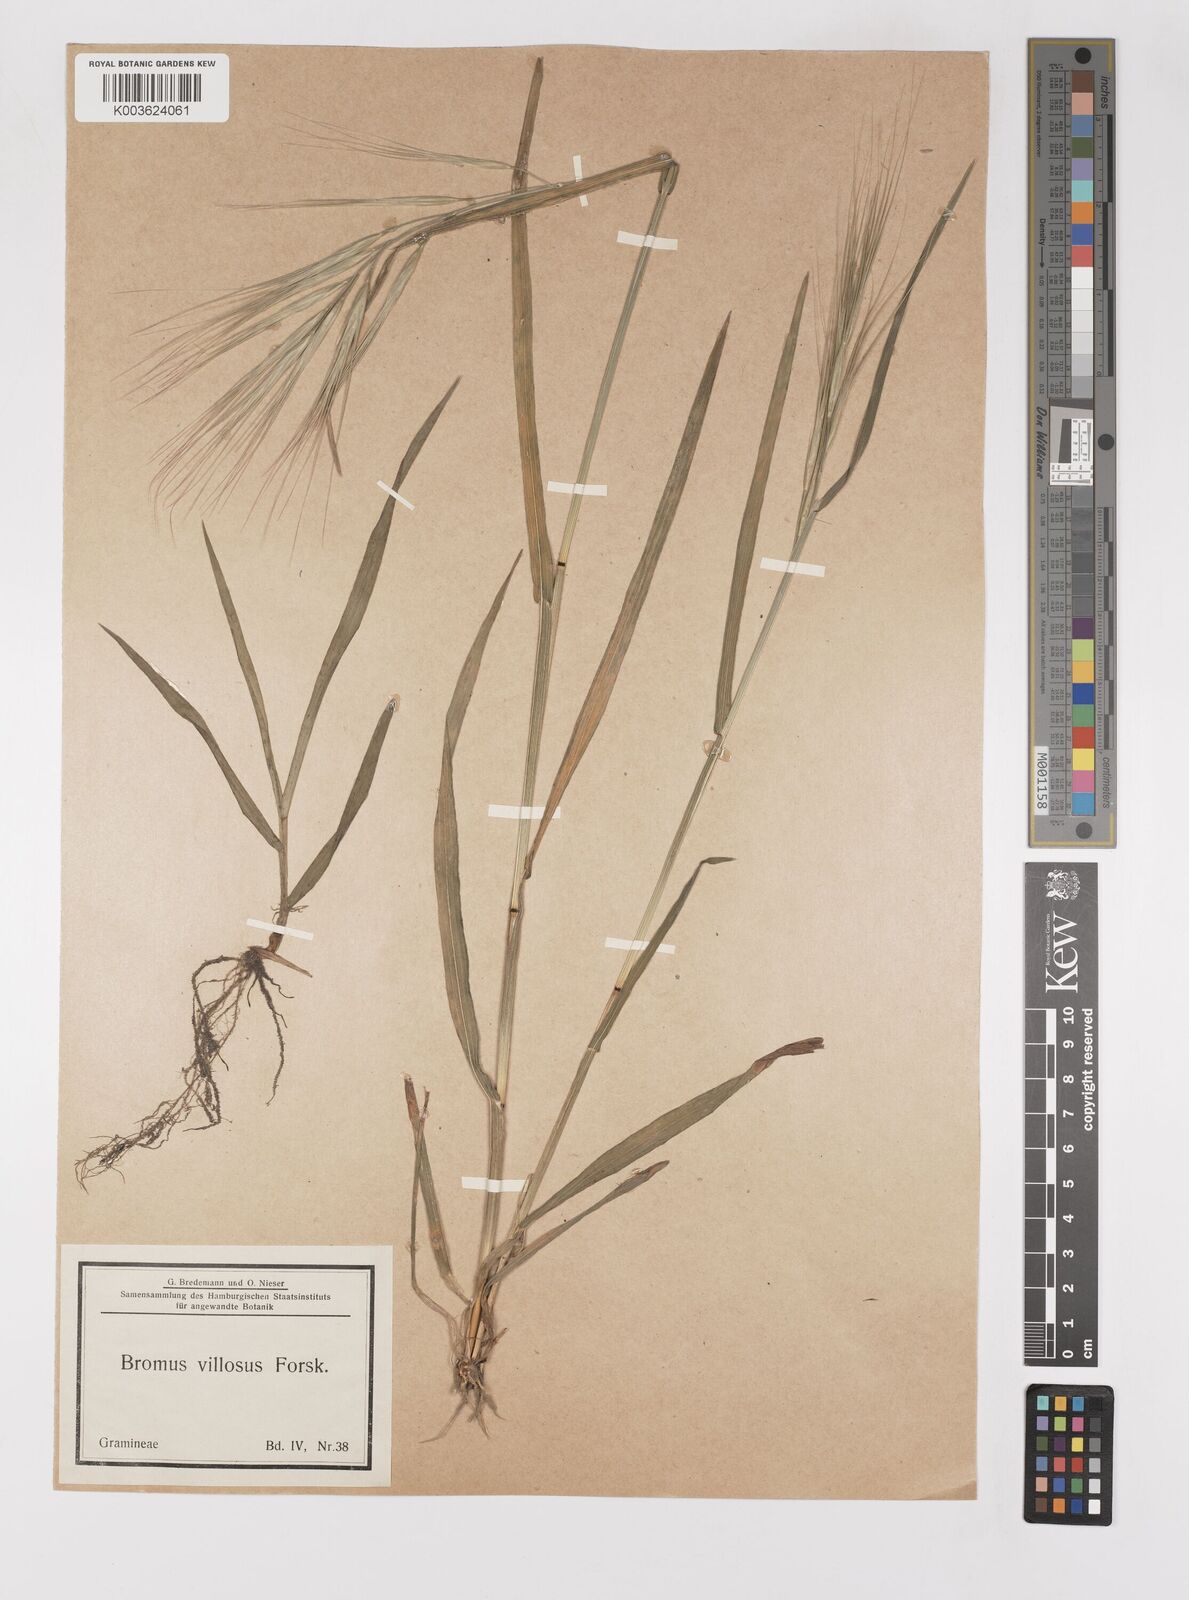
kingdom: Plantae
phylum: Tracheophyta
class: Liliopsida
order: Poales
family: Poaceae
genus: Bromus
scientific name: Bromus diandrus
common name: Ripgut brome
